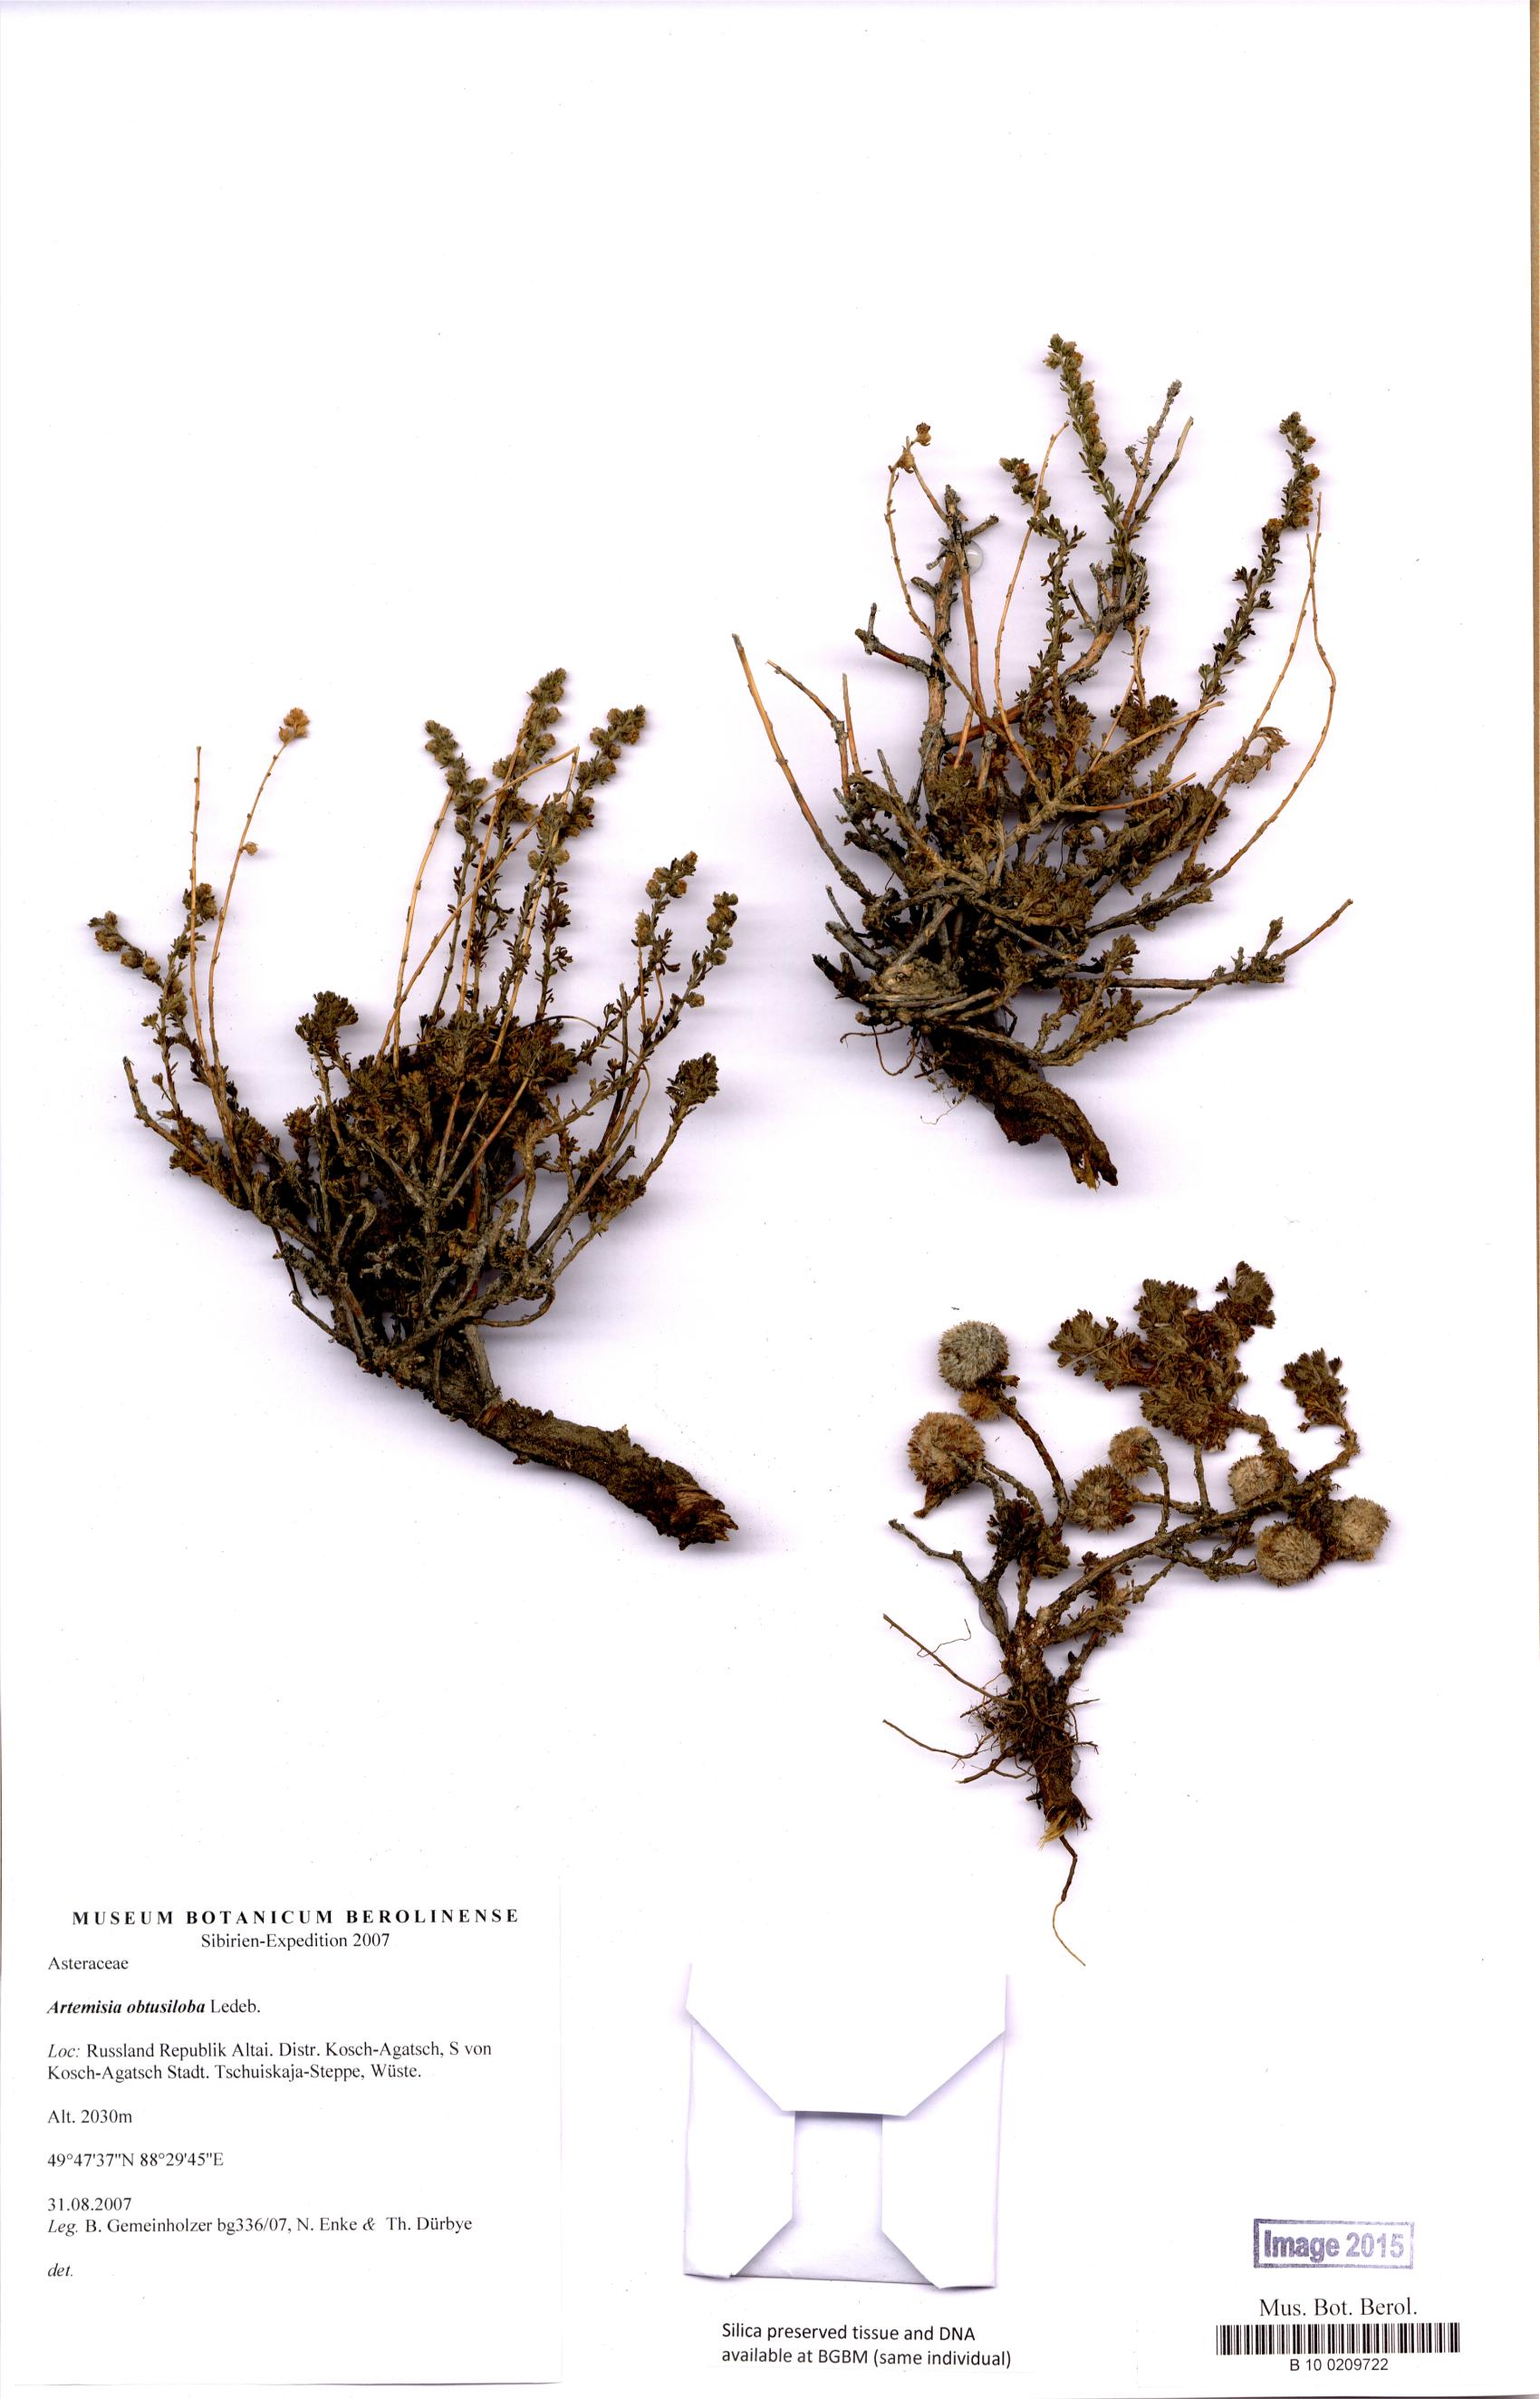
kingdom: Plantae
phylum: Tracheophyta
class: Magnoliopsida
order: Asterales
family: Asteraceae
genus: Artemisia
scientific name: Artemisia obtusiloba
